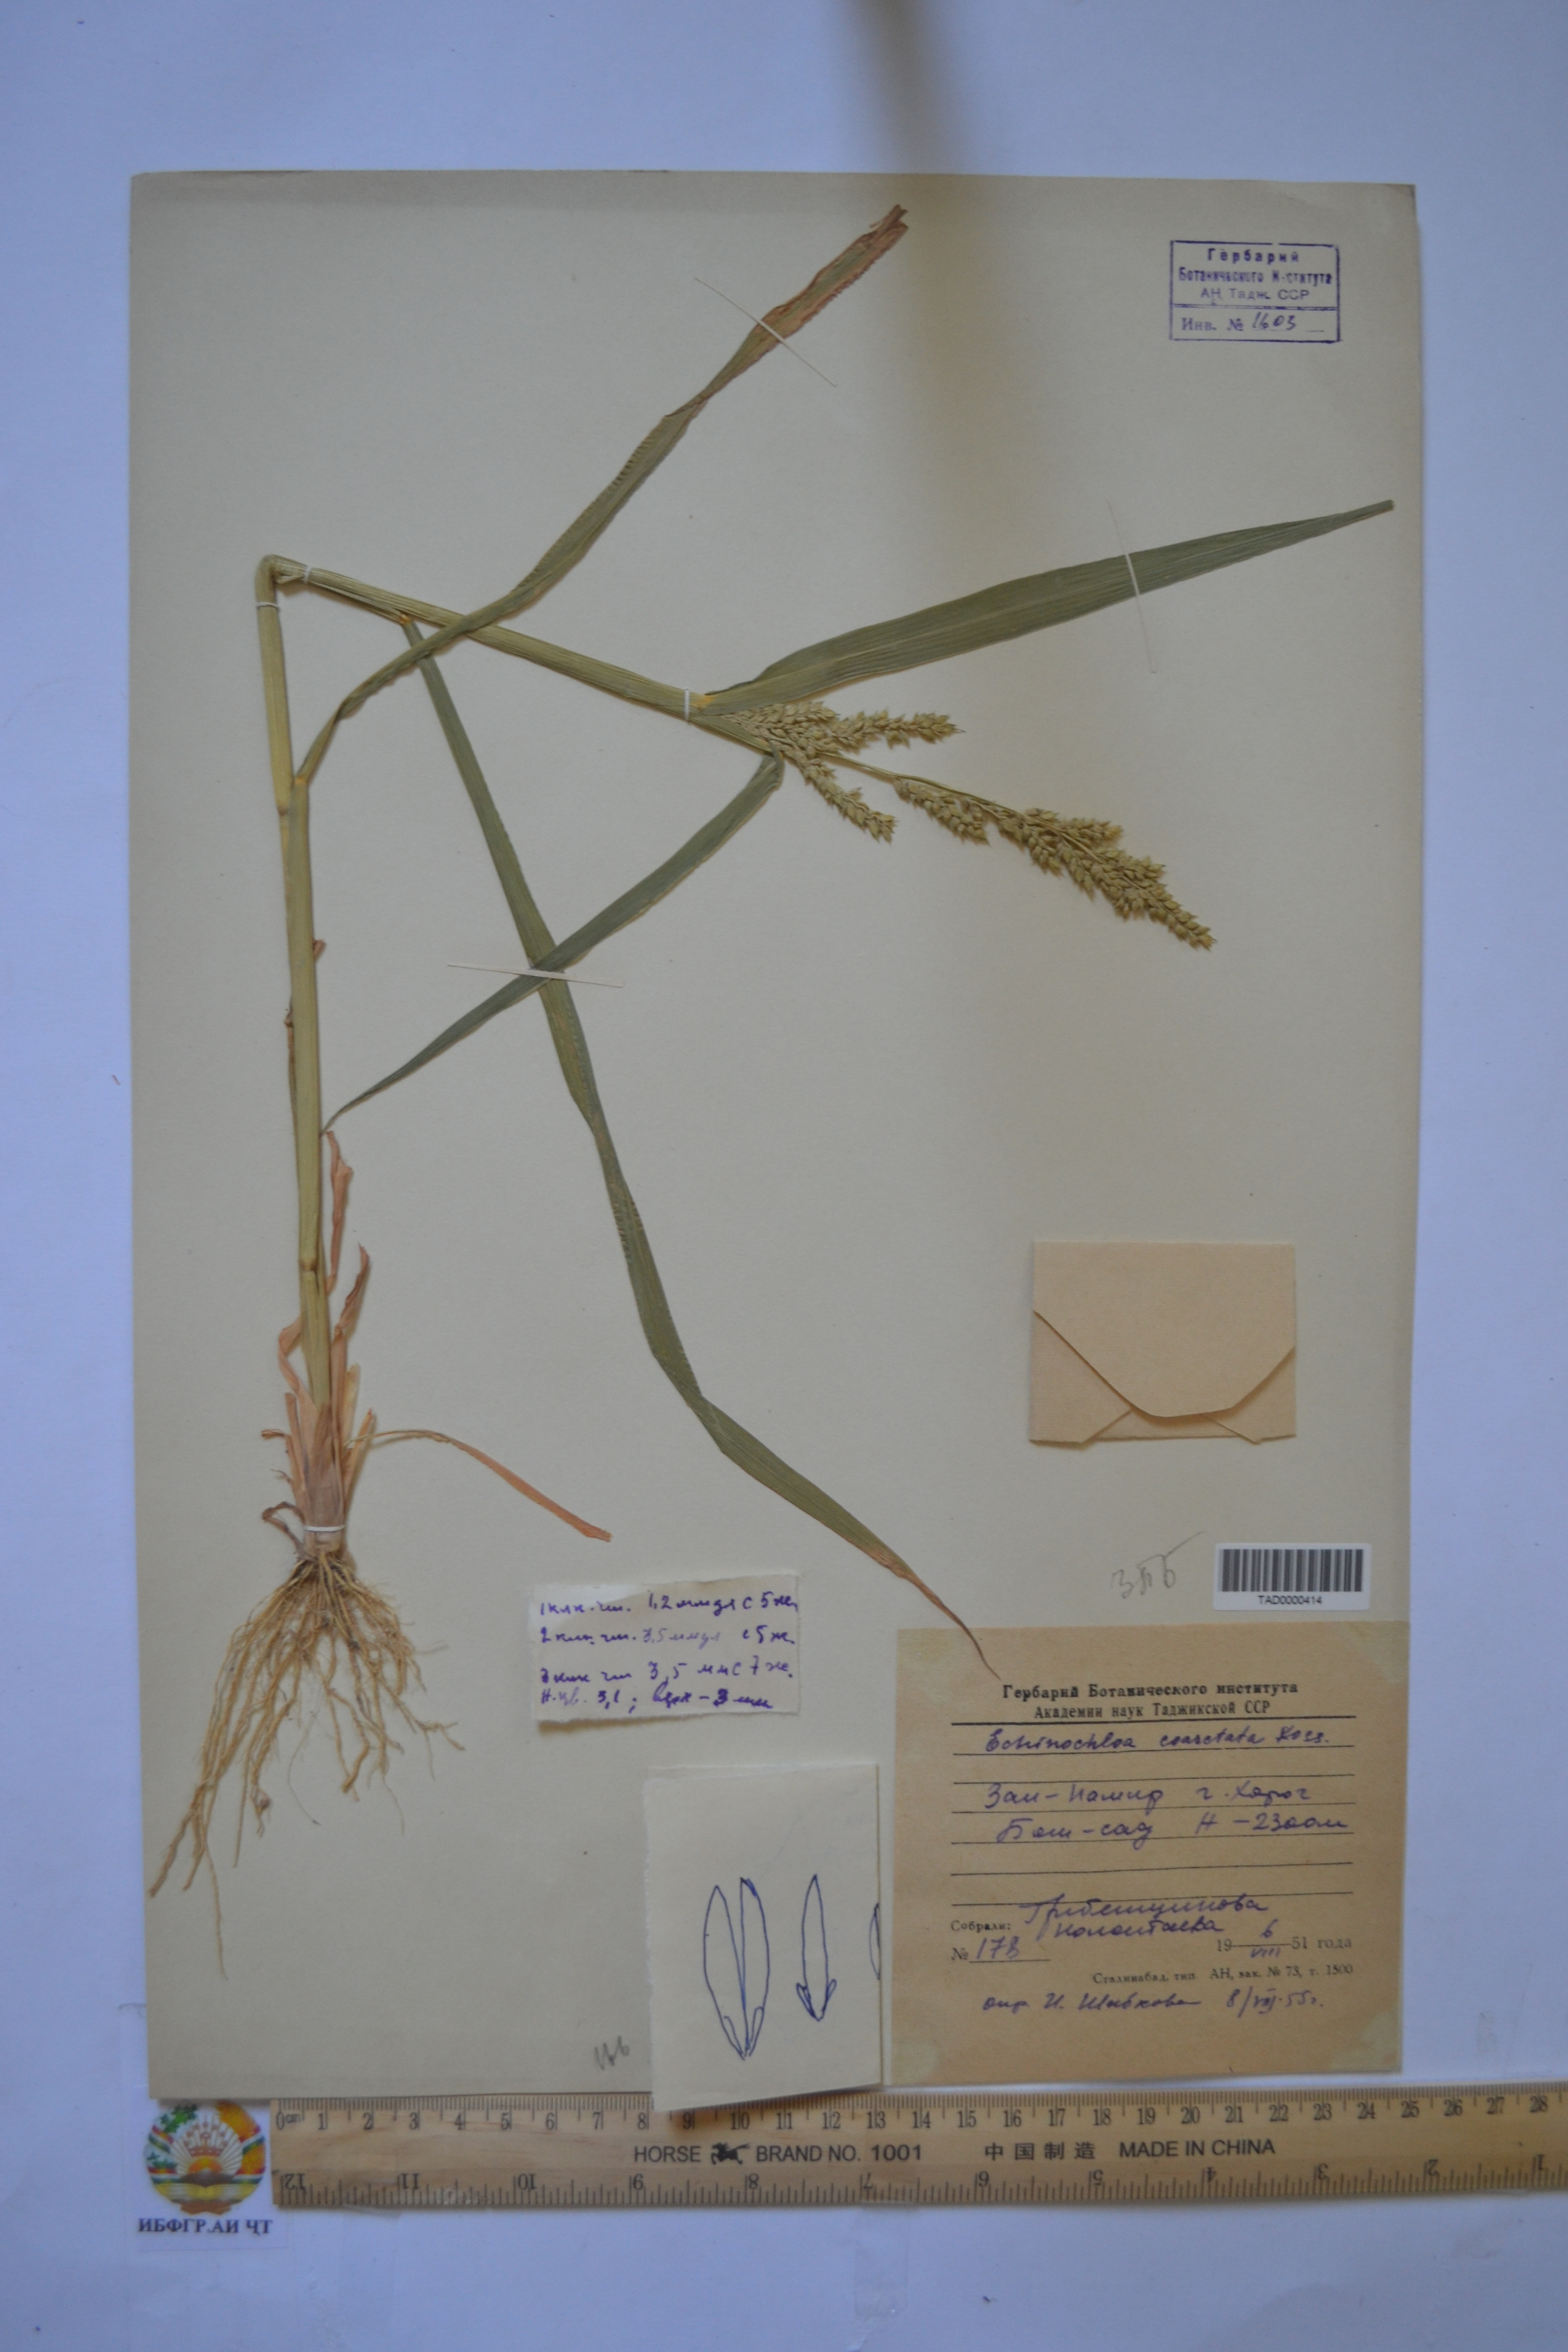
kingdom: Plantae
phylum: Tracheophyta
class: Liliopsida
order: Poales
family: Poaceae
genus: Echinochloa
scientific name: Echinochloa oryzoides
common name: Early water grass
